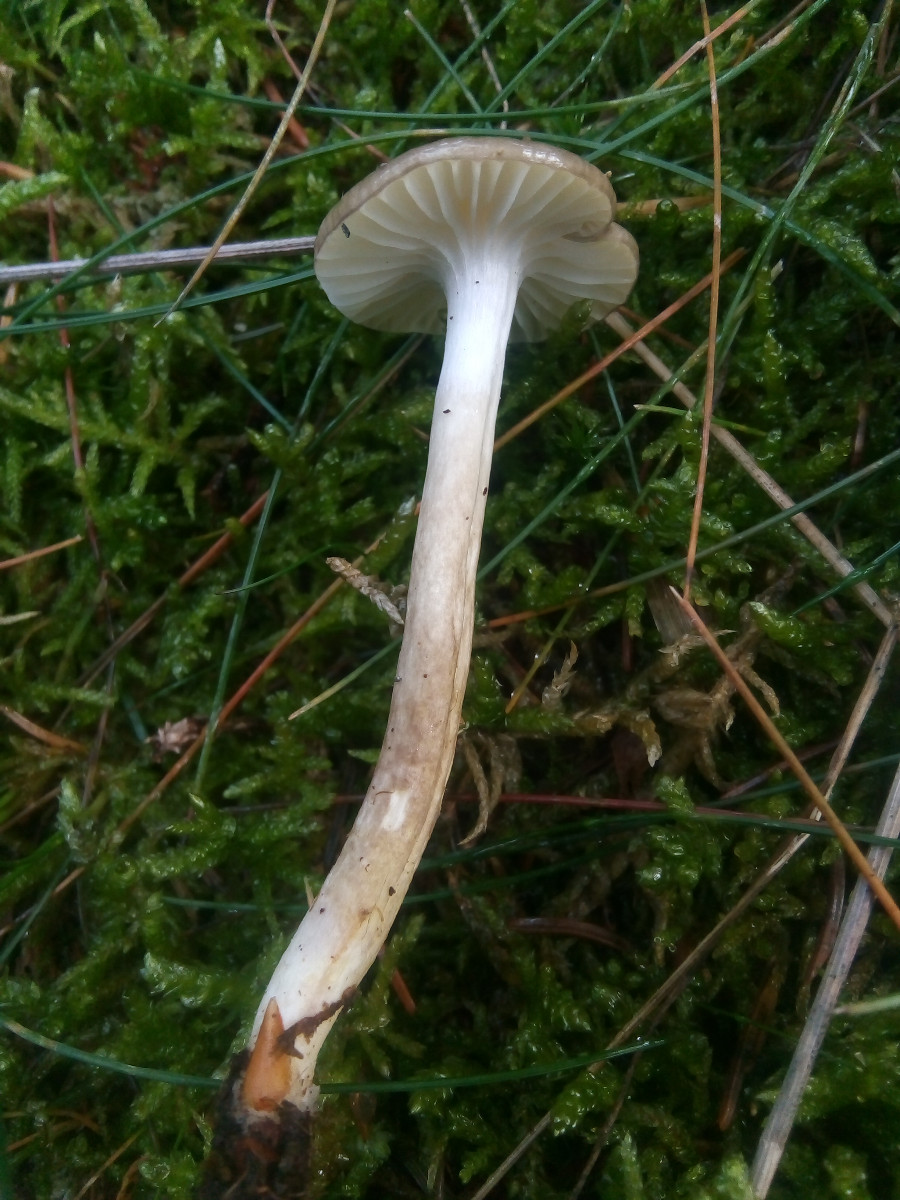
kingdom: Fungi
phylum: Basidiomycota
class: Agaricomycetes
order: Agaricales
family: Hygrophoraceae
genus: Hygrophorus
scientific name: Hygrophorus olivaceoalbus
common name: hvidbrun sneglehat
